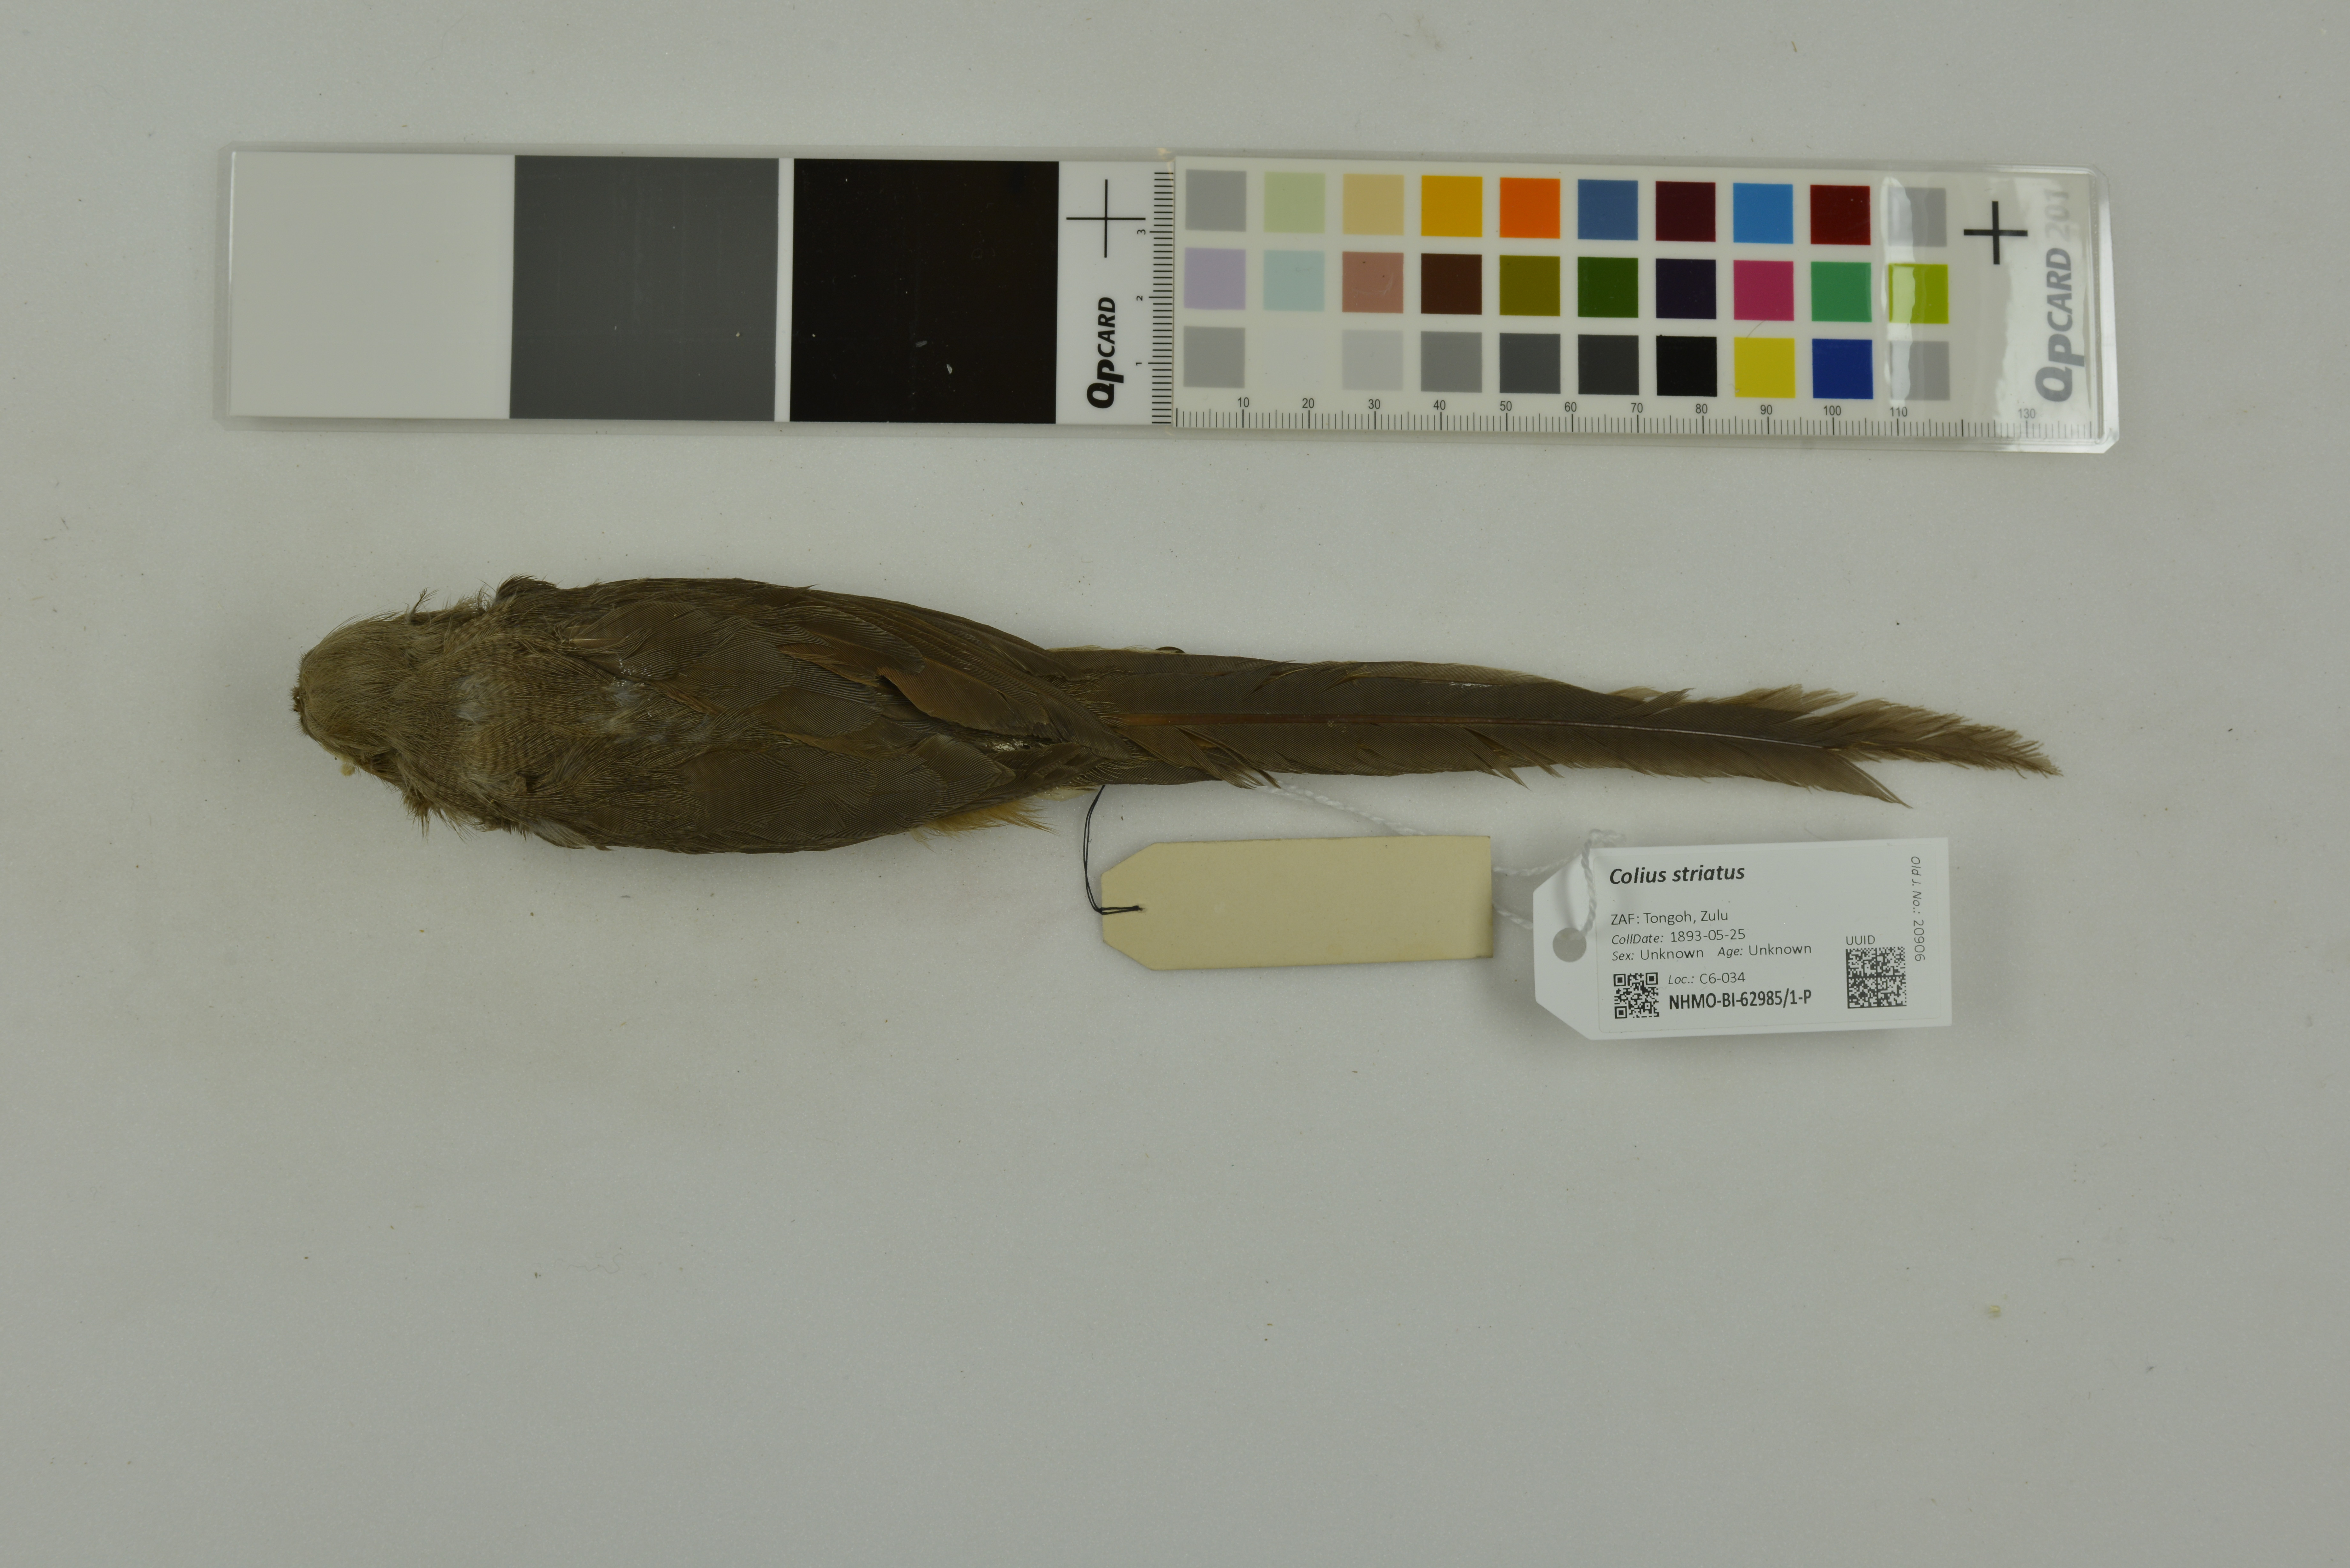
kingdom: Animalia
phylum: Chordata
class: Aves
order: Coliiformes
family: Coliidae
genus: Colius
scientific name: Colius striatus
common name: Speckled mousebird
